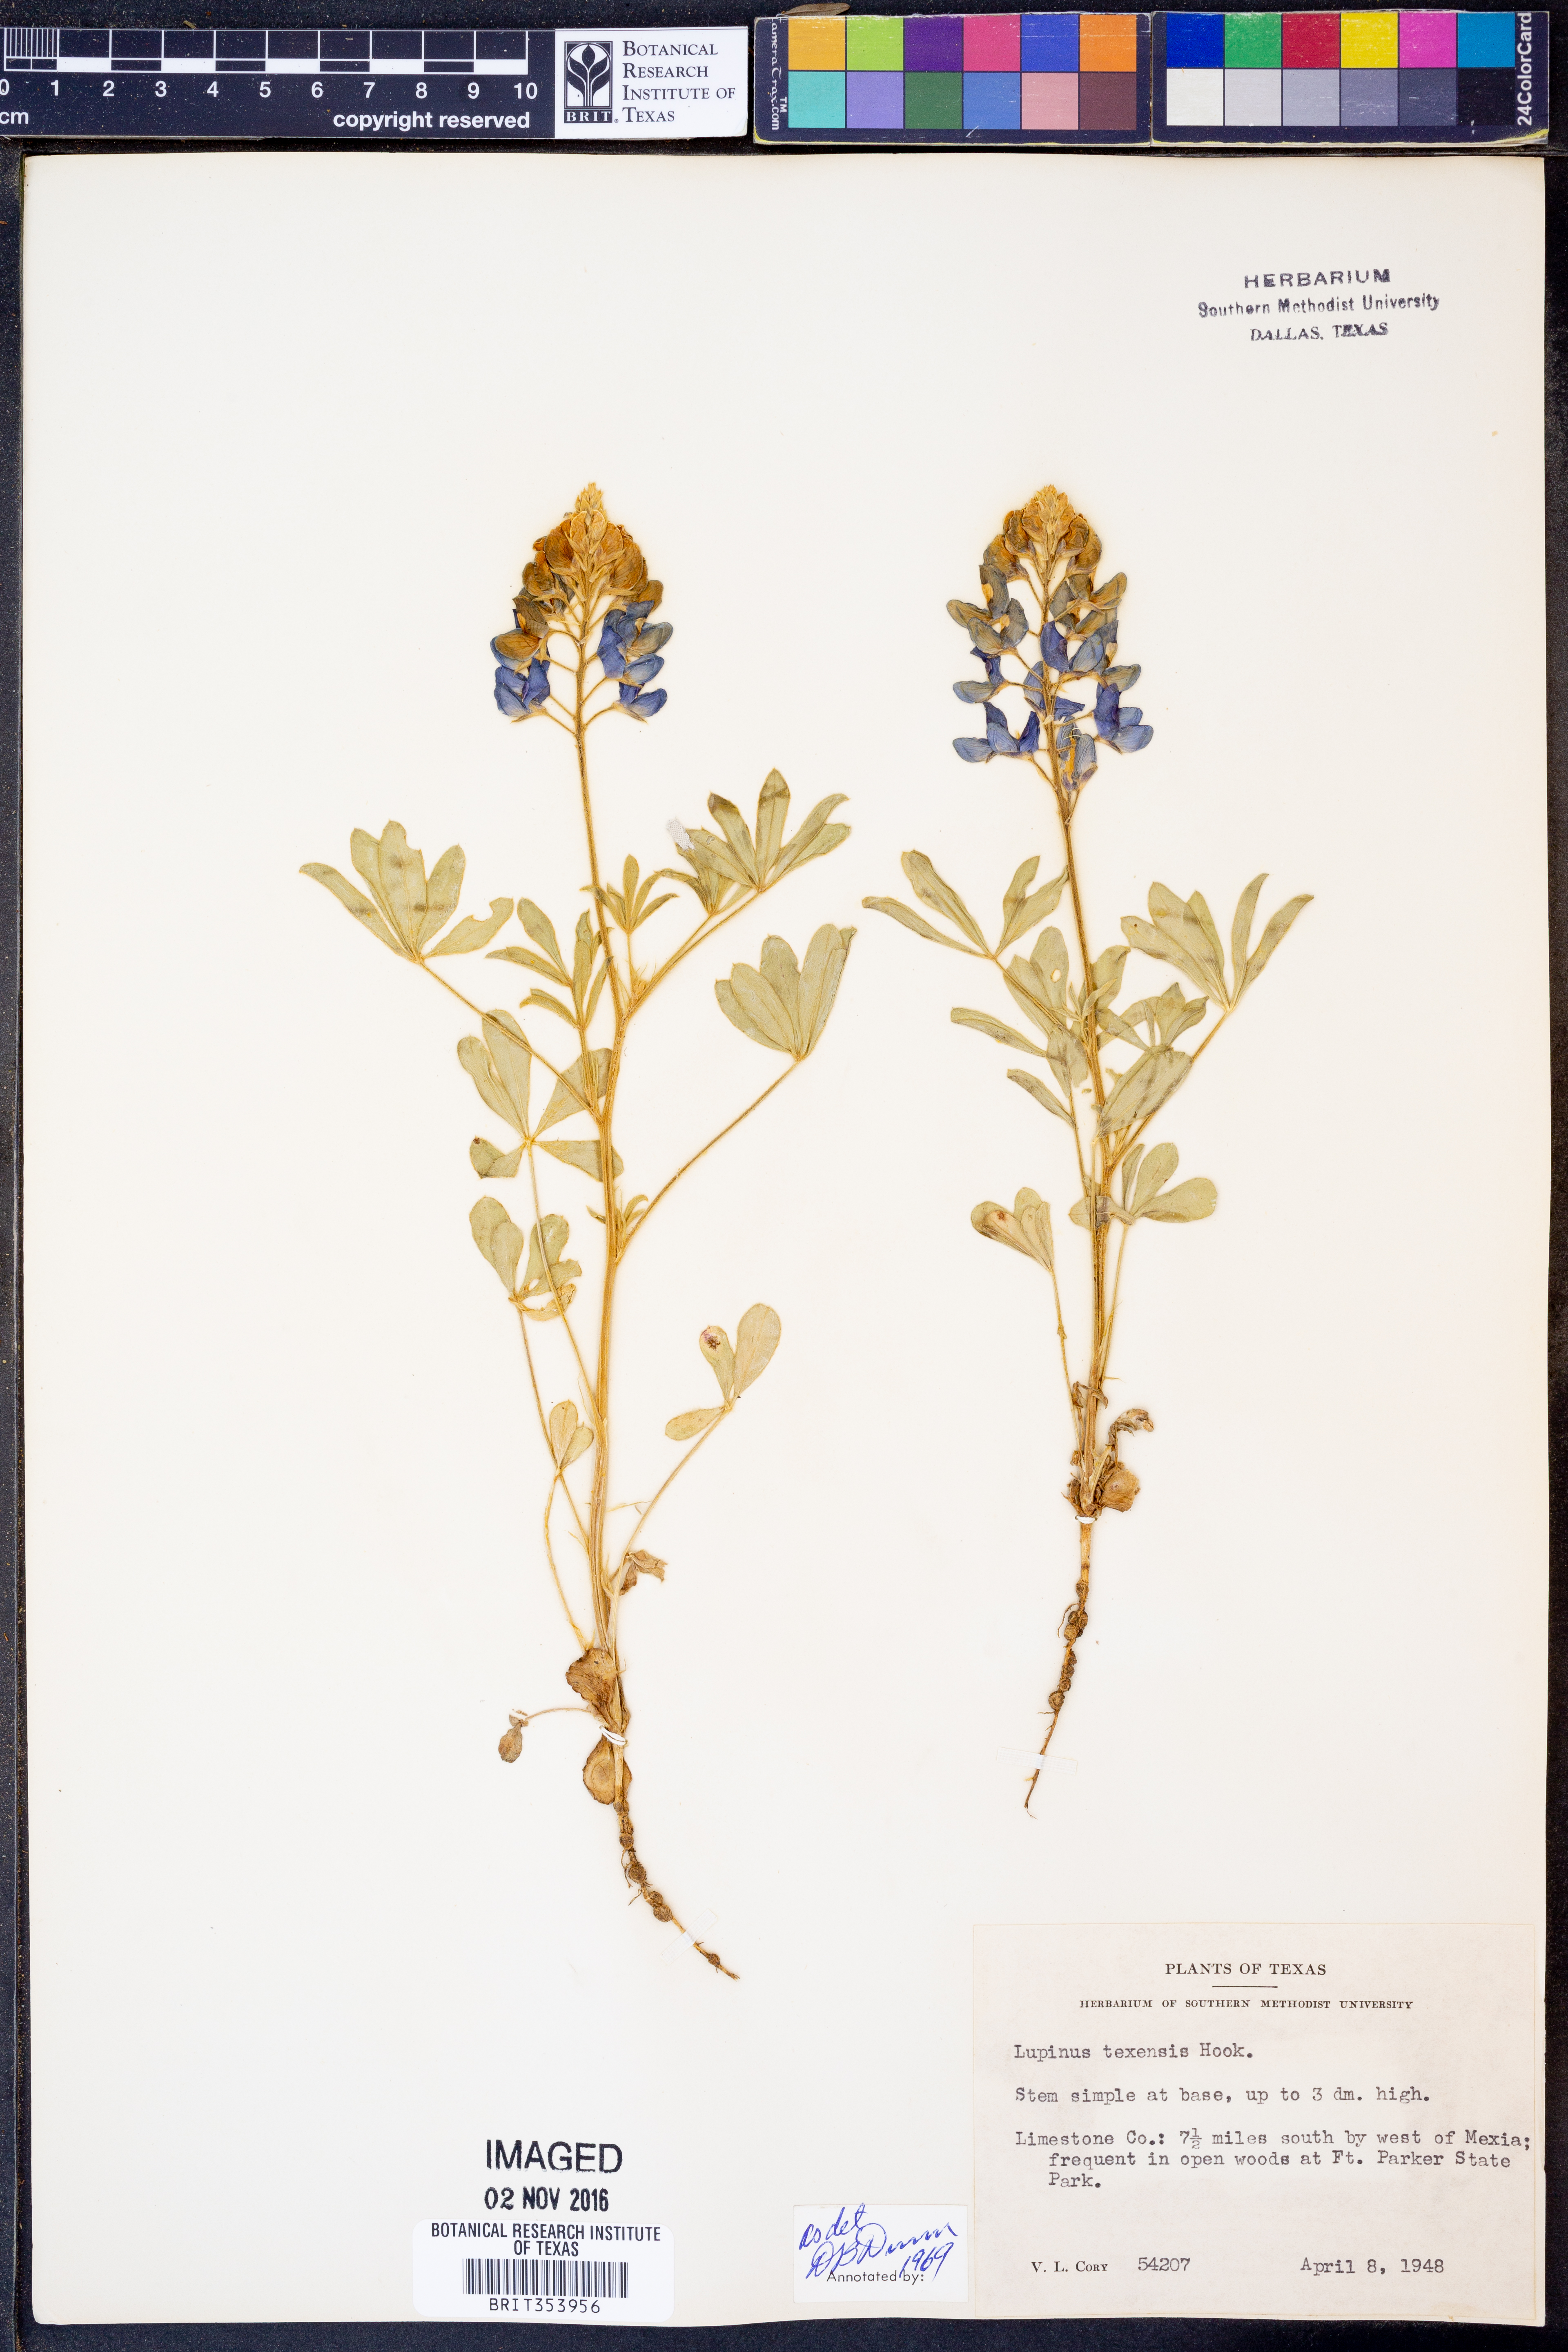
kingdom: Plantae
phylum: Tracheophyta
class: Magnoliopsida
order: Fabales
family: Fabaceae
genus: Lupinus
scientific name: Lupinus texensis
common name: Texas bluebonnet
